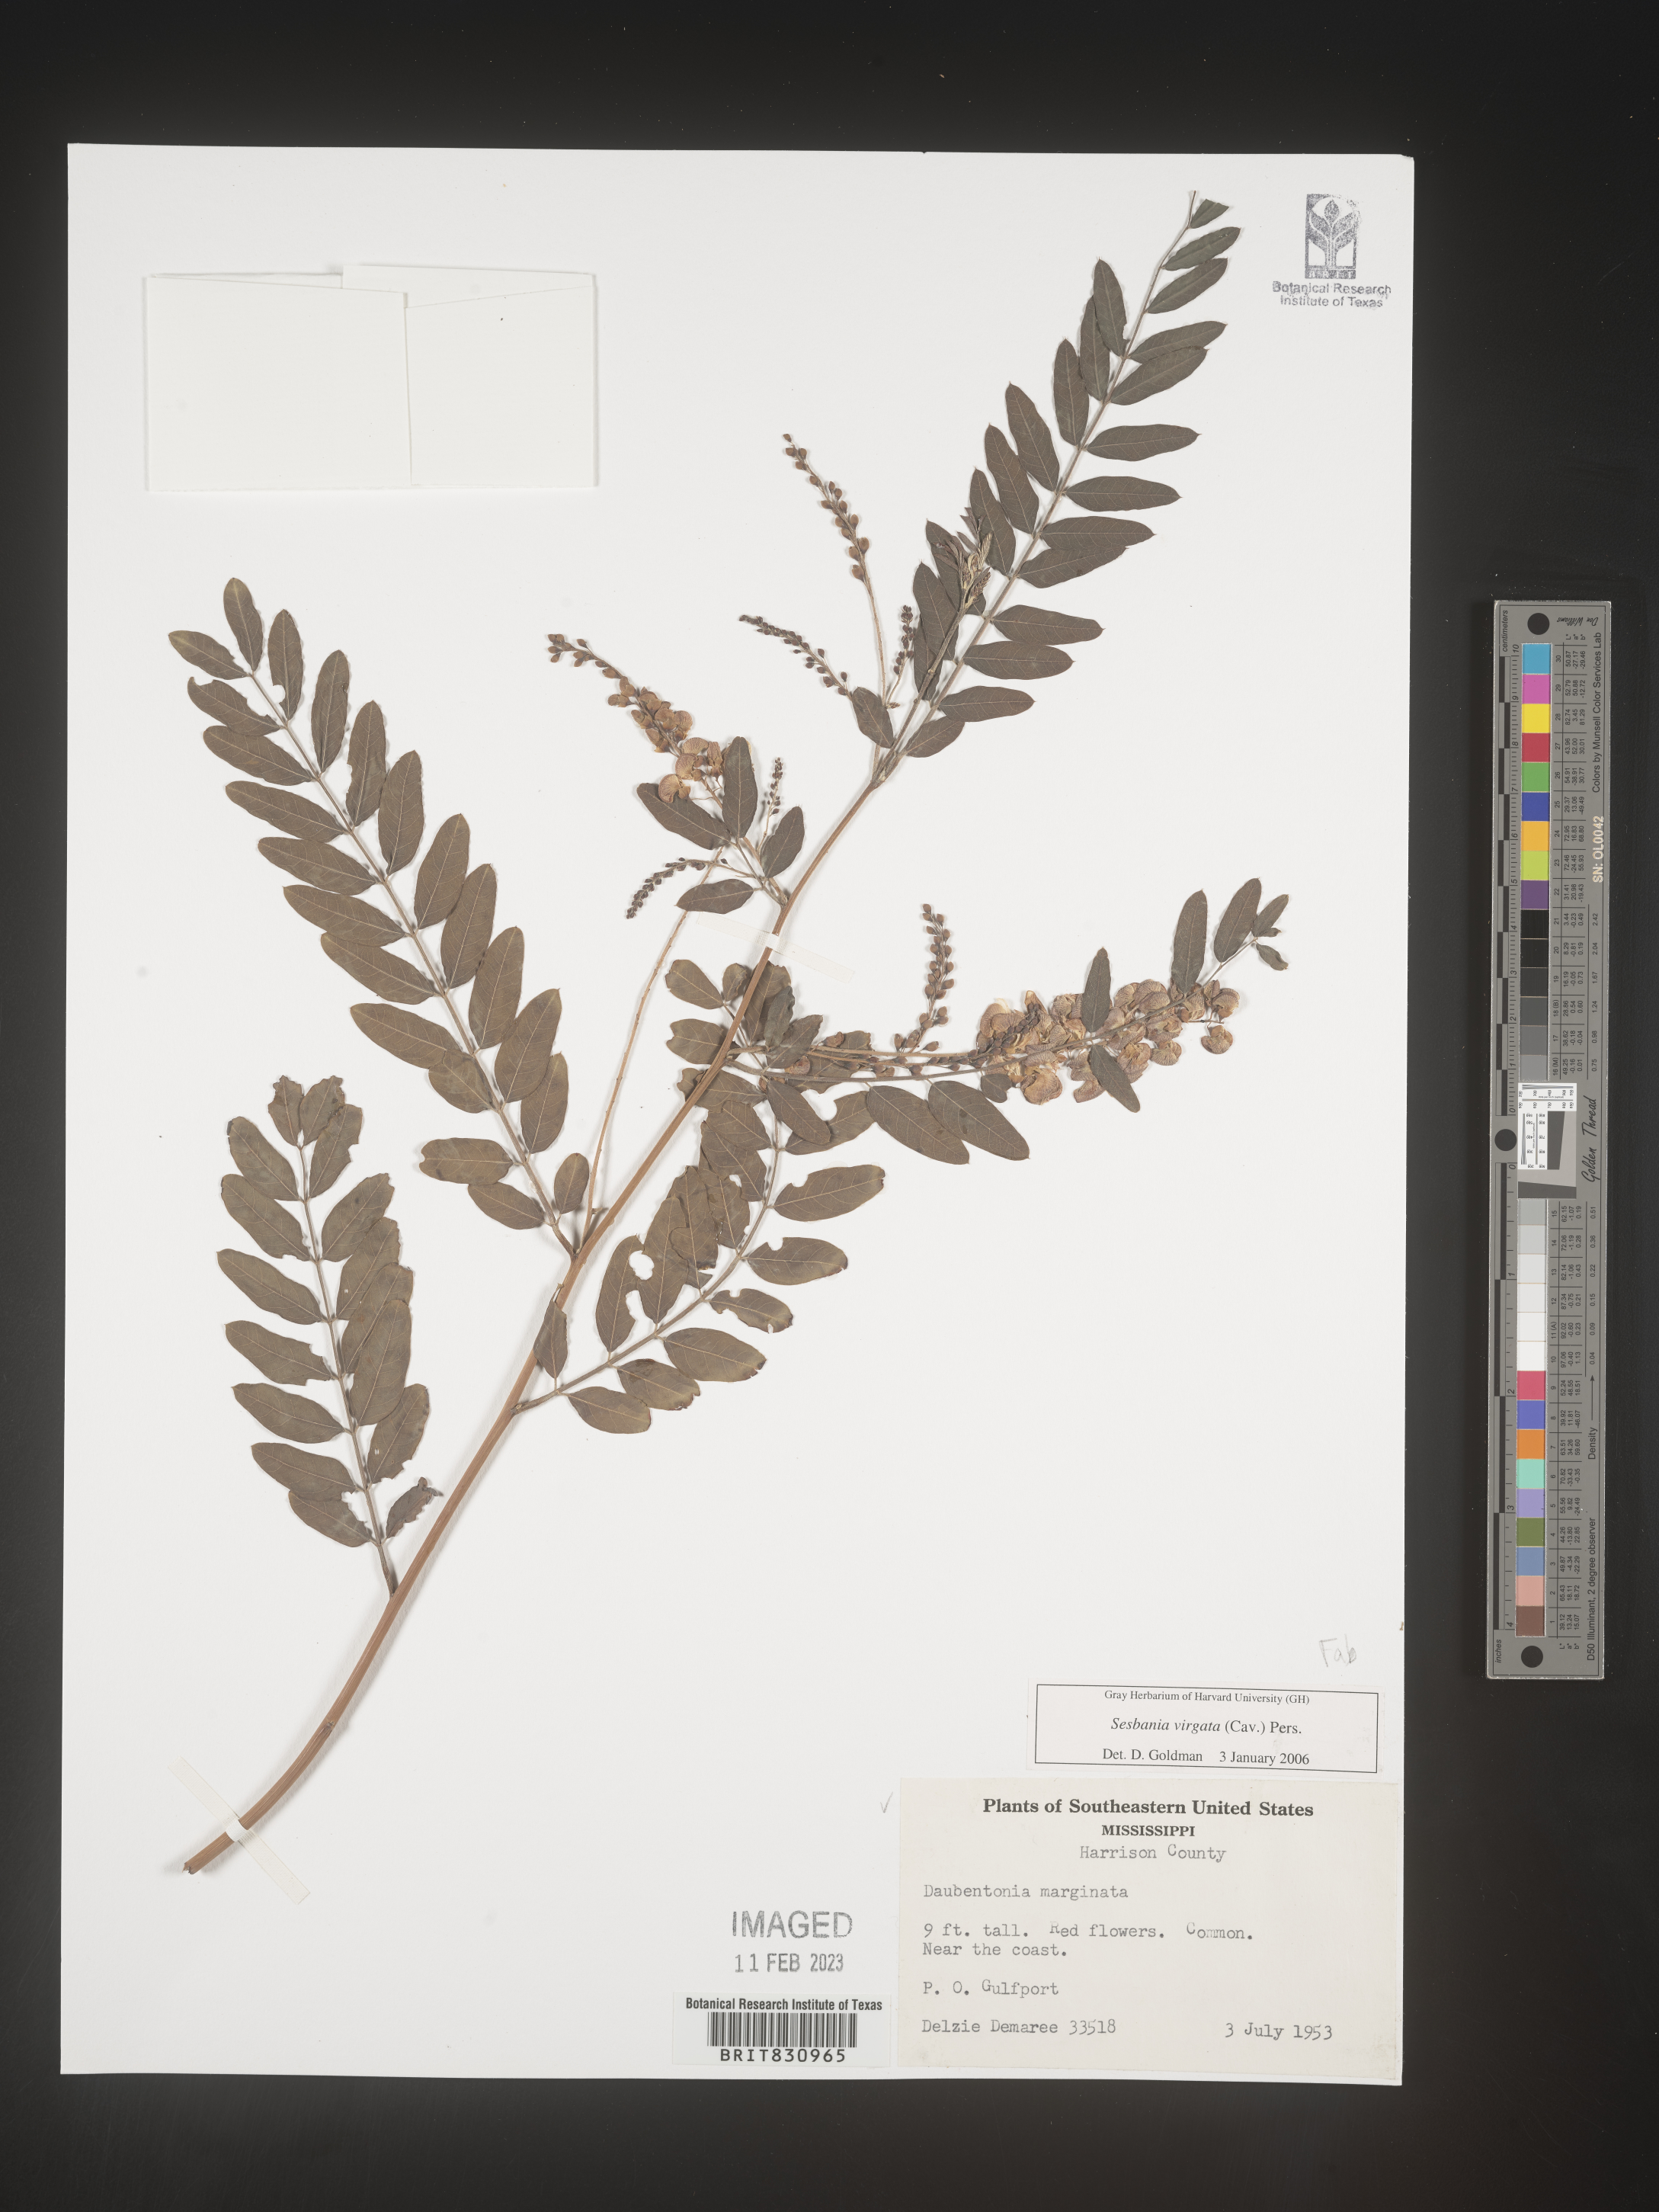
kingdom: Plantae
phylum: Tracheophyta
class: Magnoliopsida
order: Fabales
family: Fabaceae
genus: Sesbania
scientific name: Sesbania virgata
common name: Wand riverhemp
